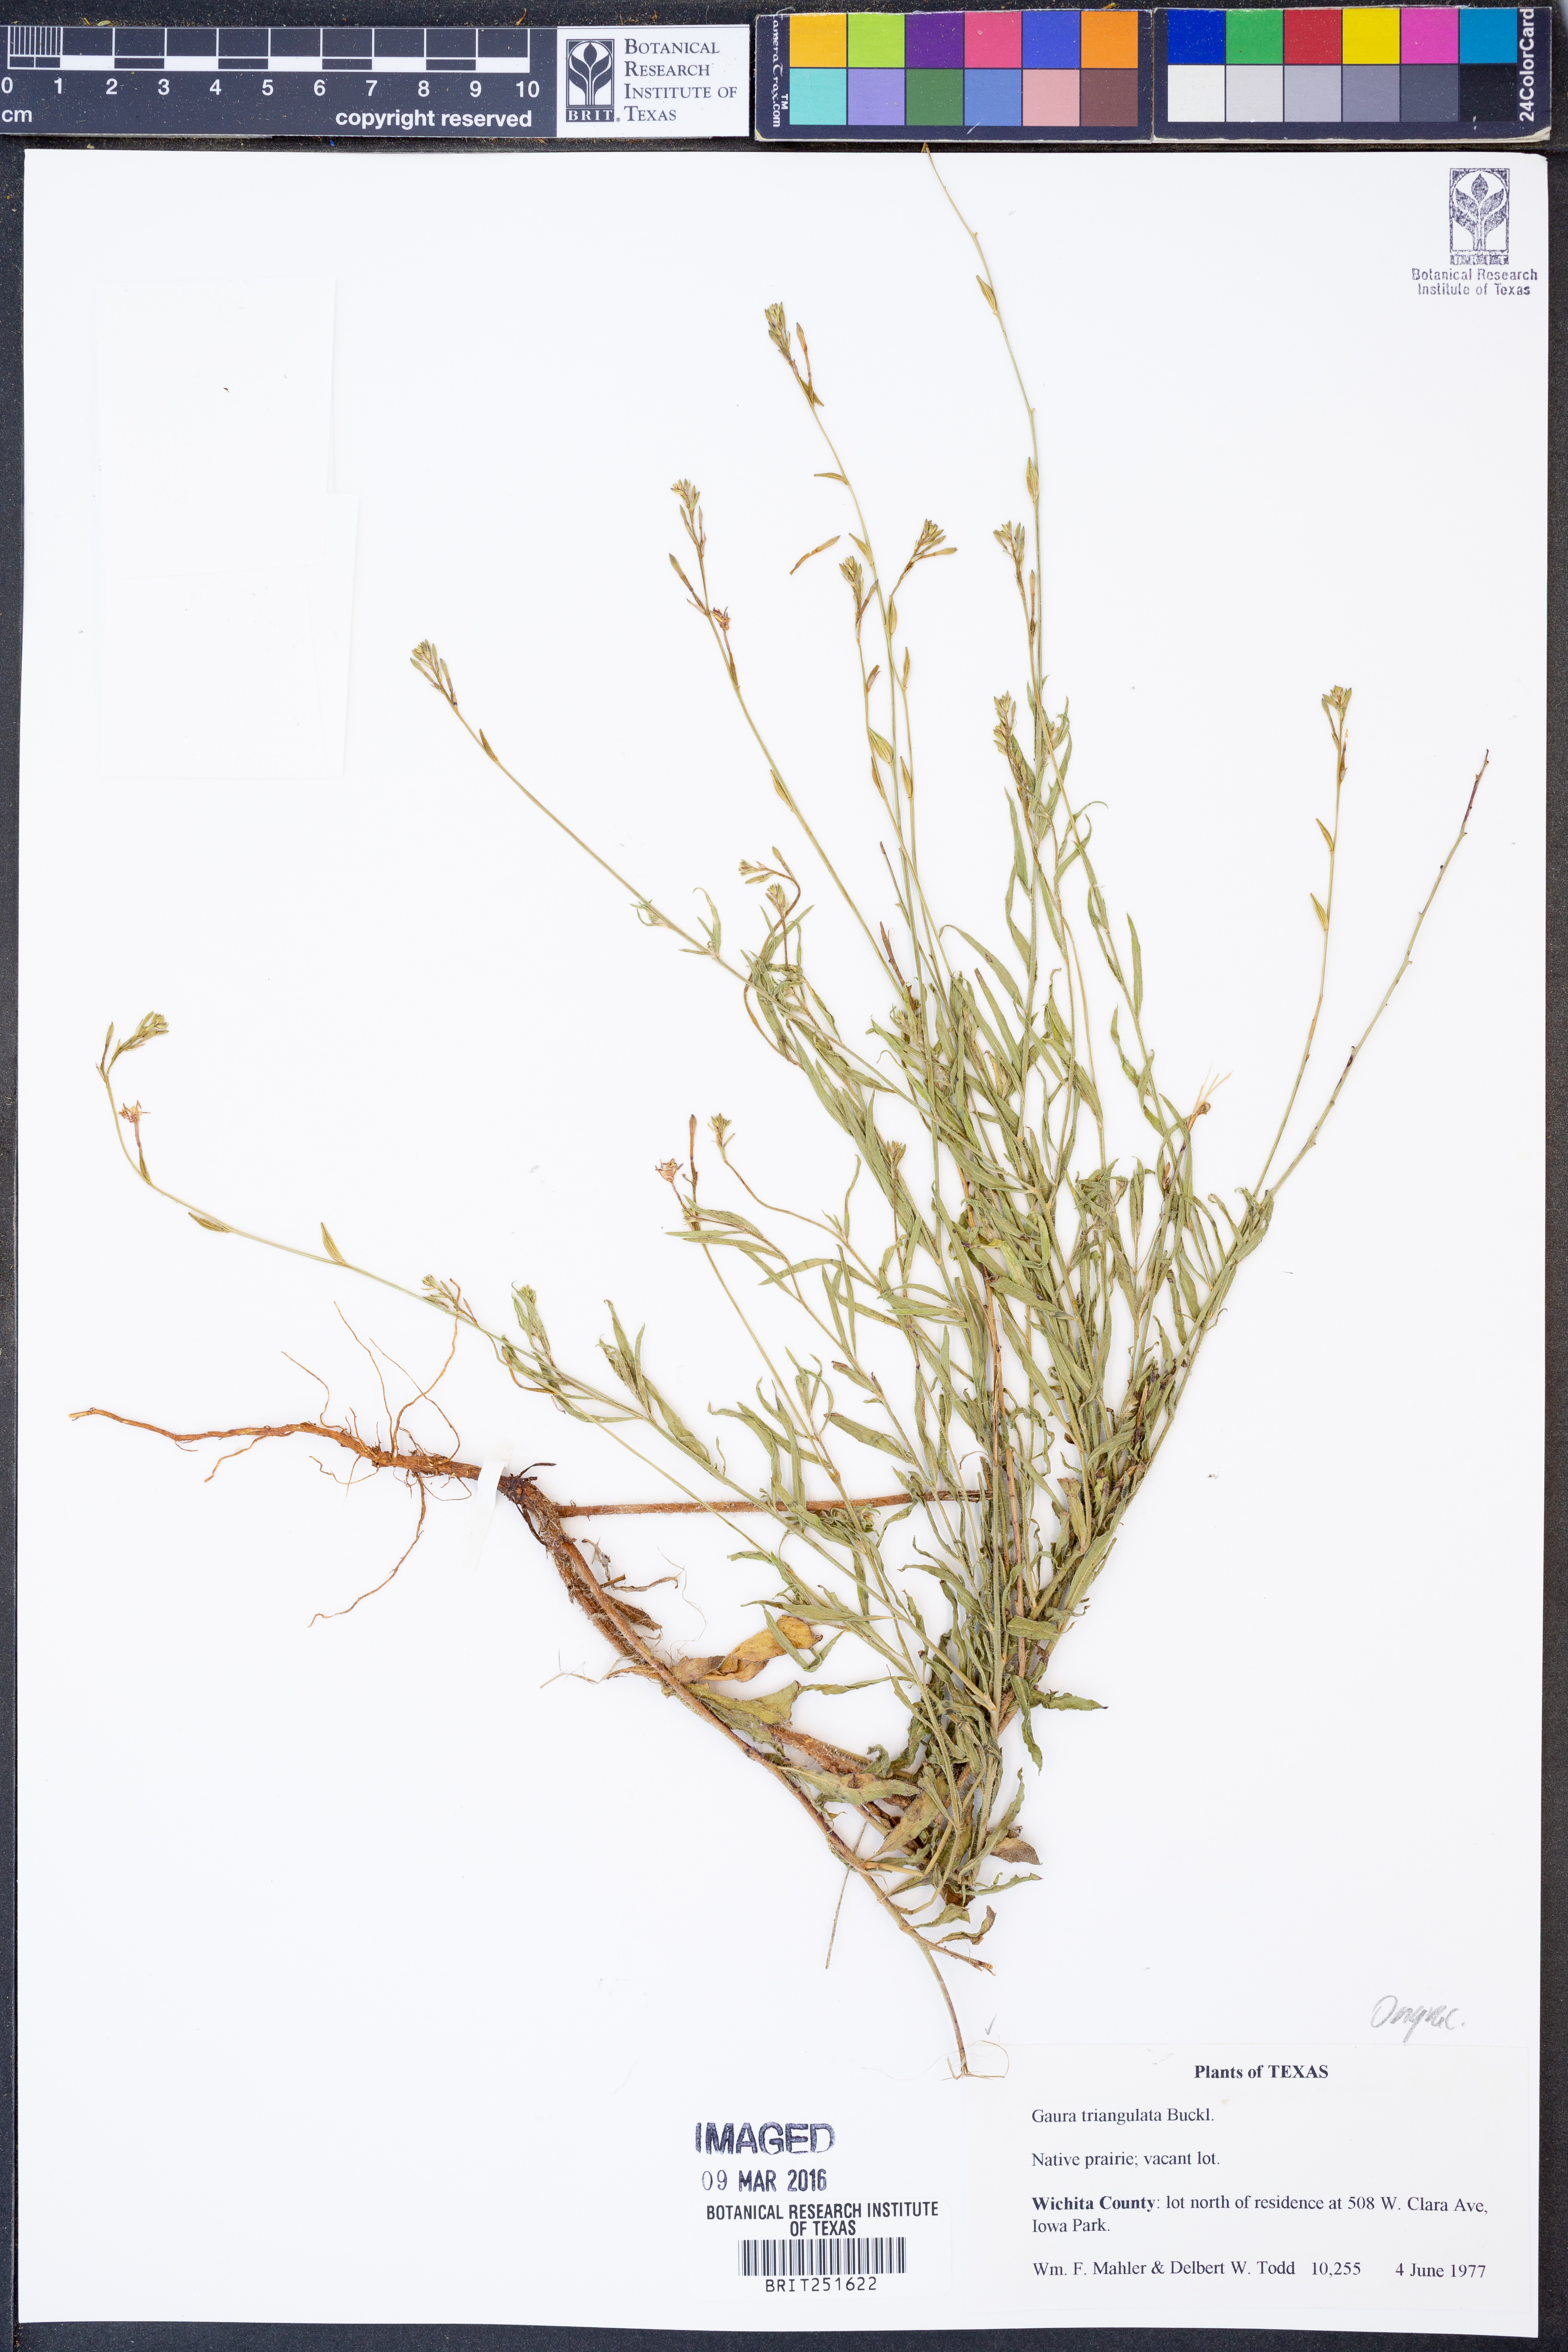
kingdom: Plantae
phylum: Tracheophyta
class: Magnoliopsida
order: Myrtales
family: Onagraceae
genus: Oenothera
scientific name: Oenothera triangulata
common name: Prairie beeblossom
